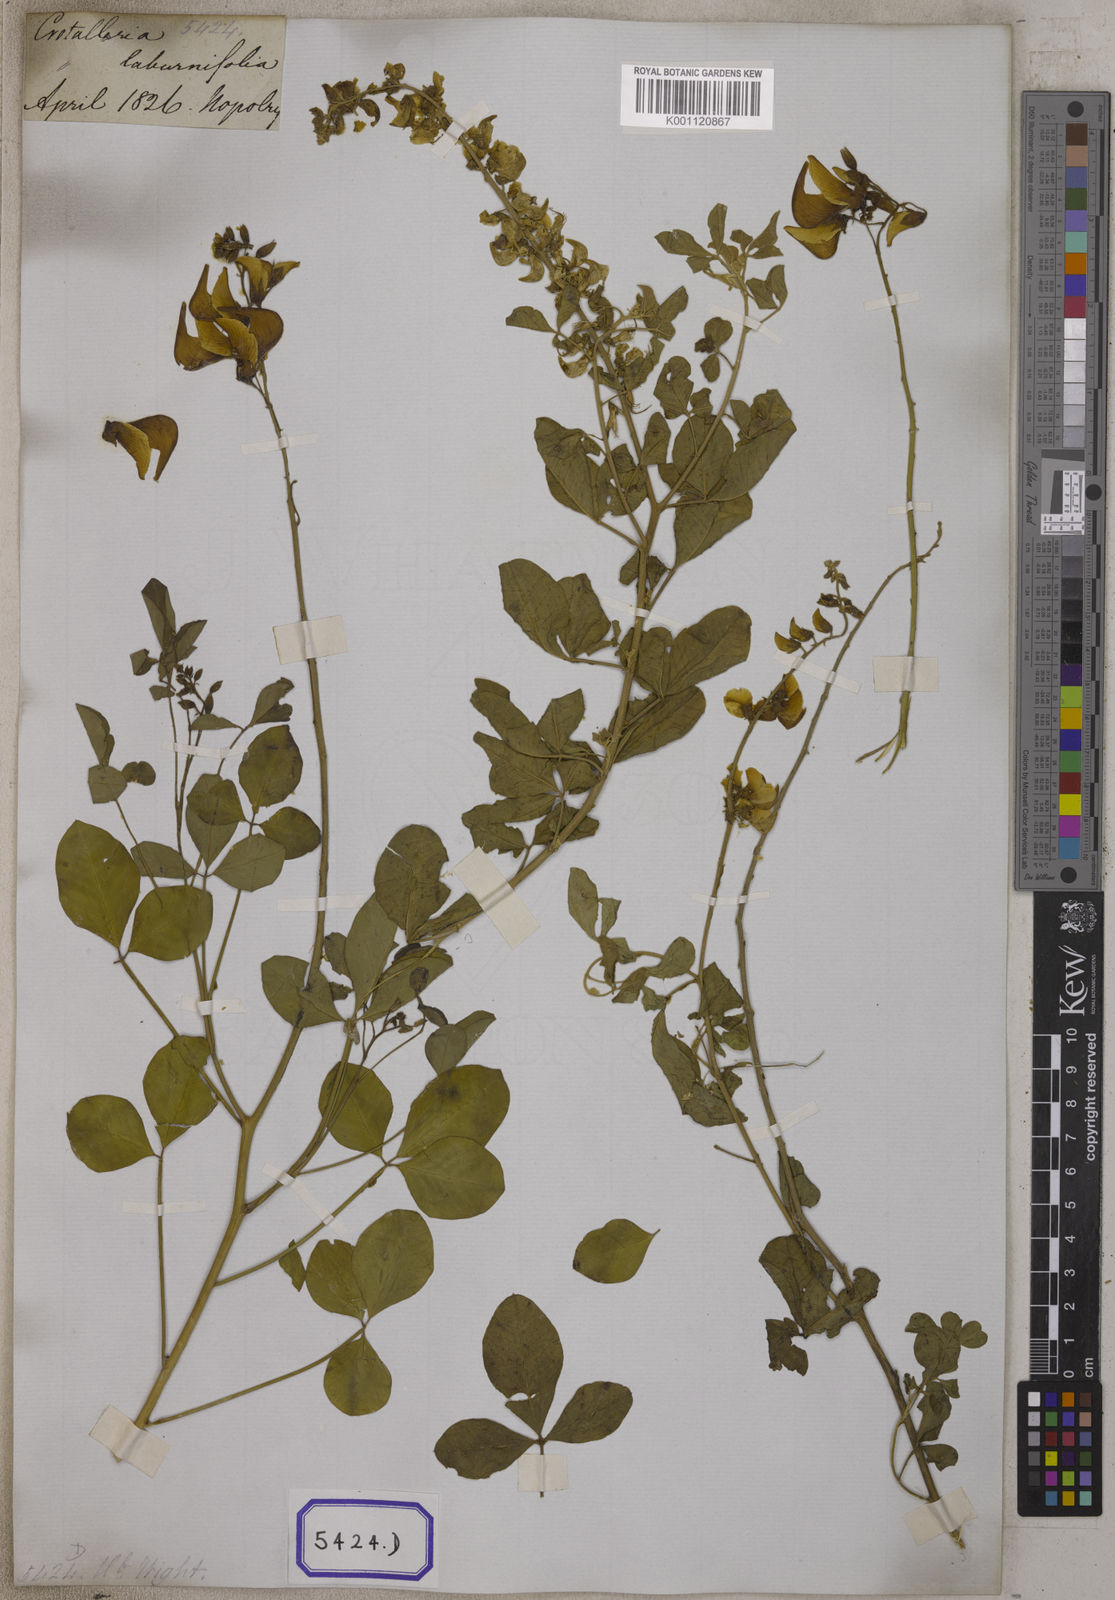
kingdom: Plantae
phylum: Tracheophyta
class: Magnoliopsida
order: Fabales
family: Fabaceae
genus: Crotalaria
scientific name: Crotalaria laburnifolia
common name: Birdflower
